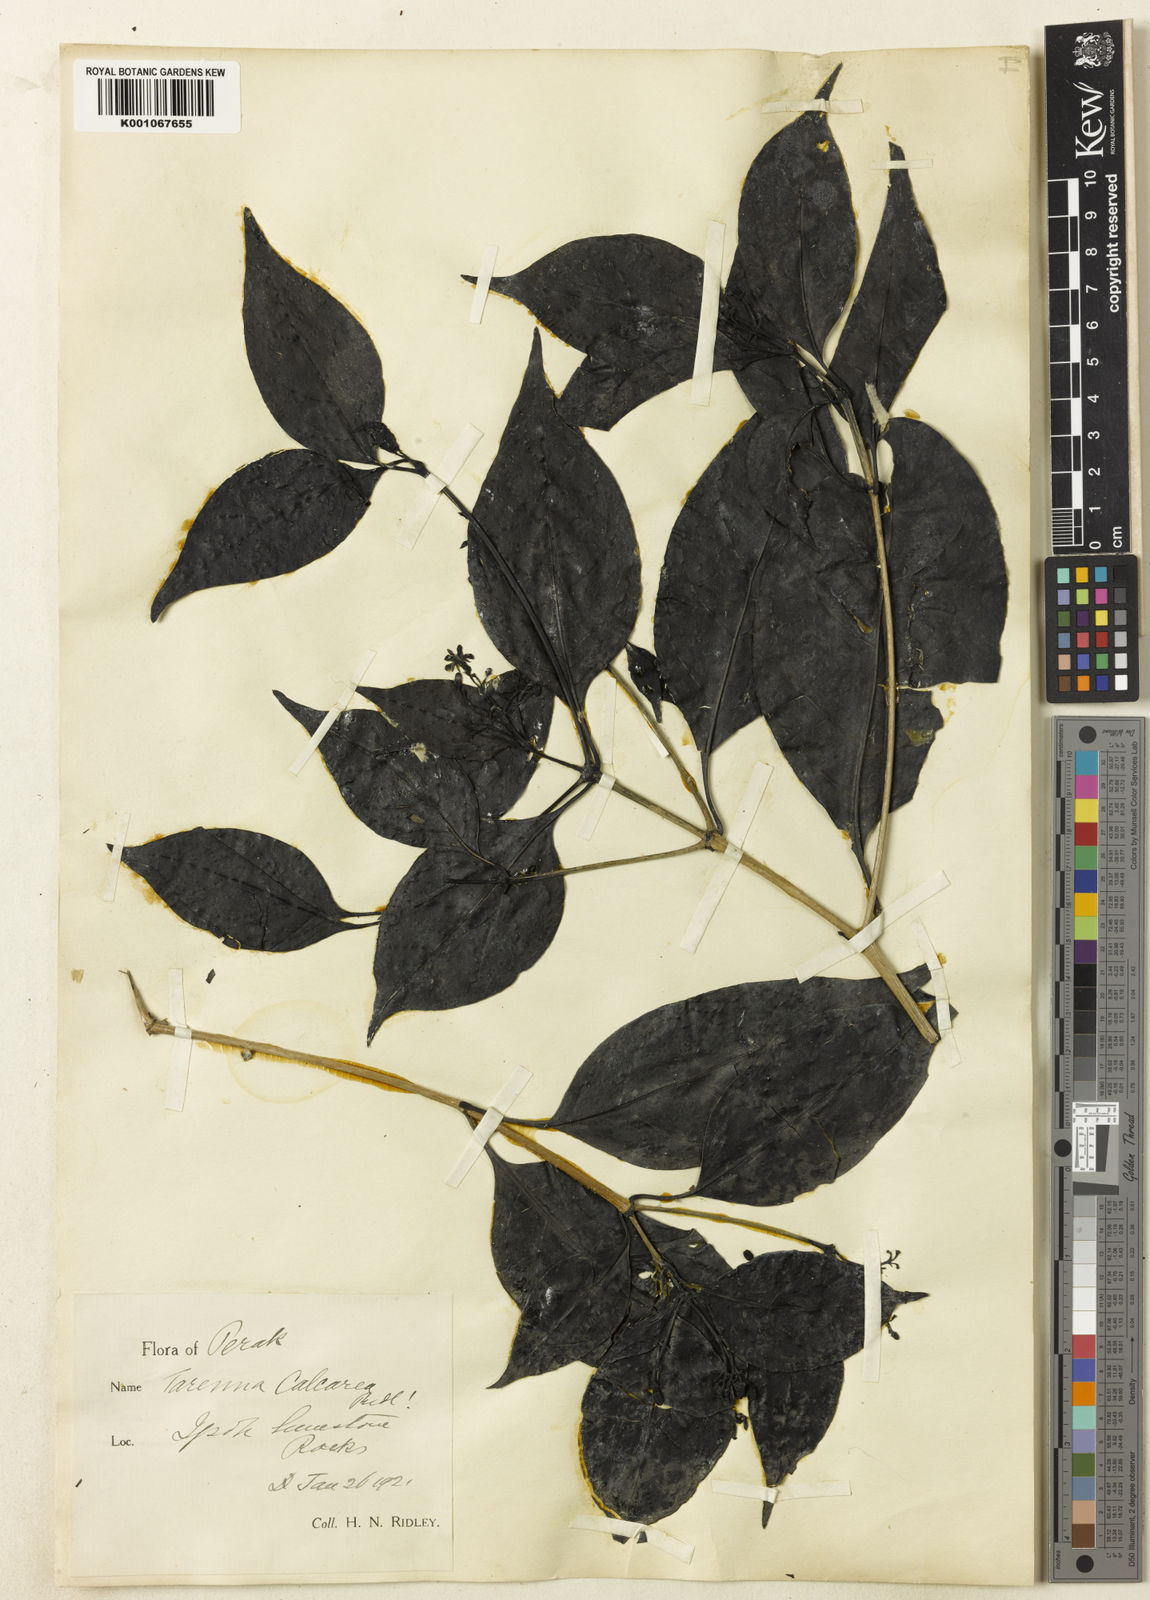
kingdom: Plantae
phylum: Tracheophyta
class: Magnoliopsida
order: Gentianales
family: Rubiaceae
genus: Tarenna
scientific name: Tarenna adangensis
